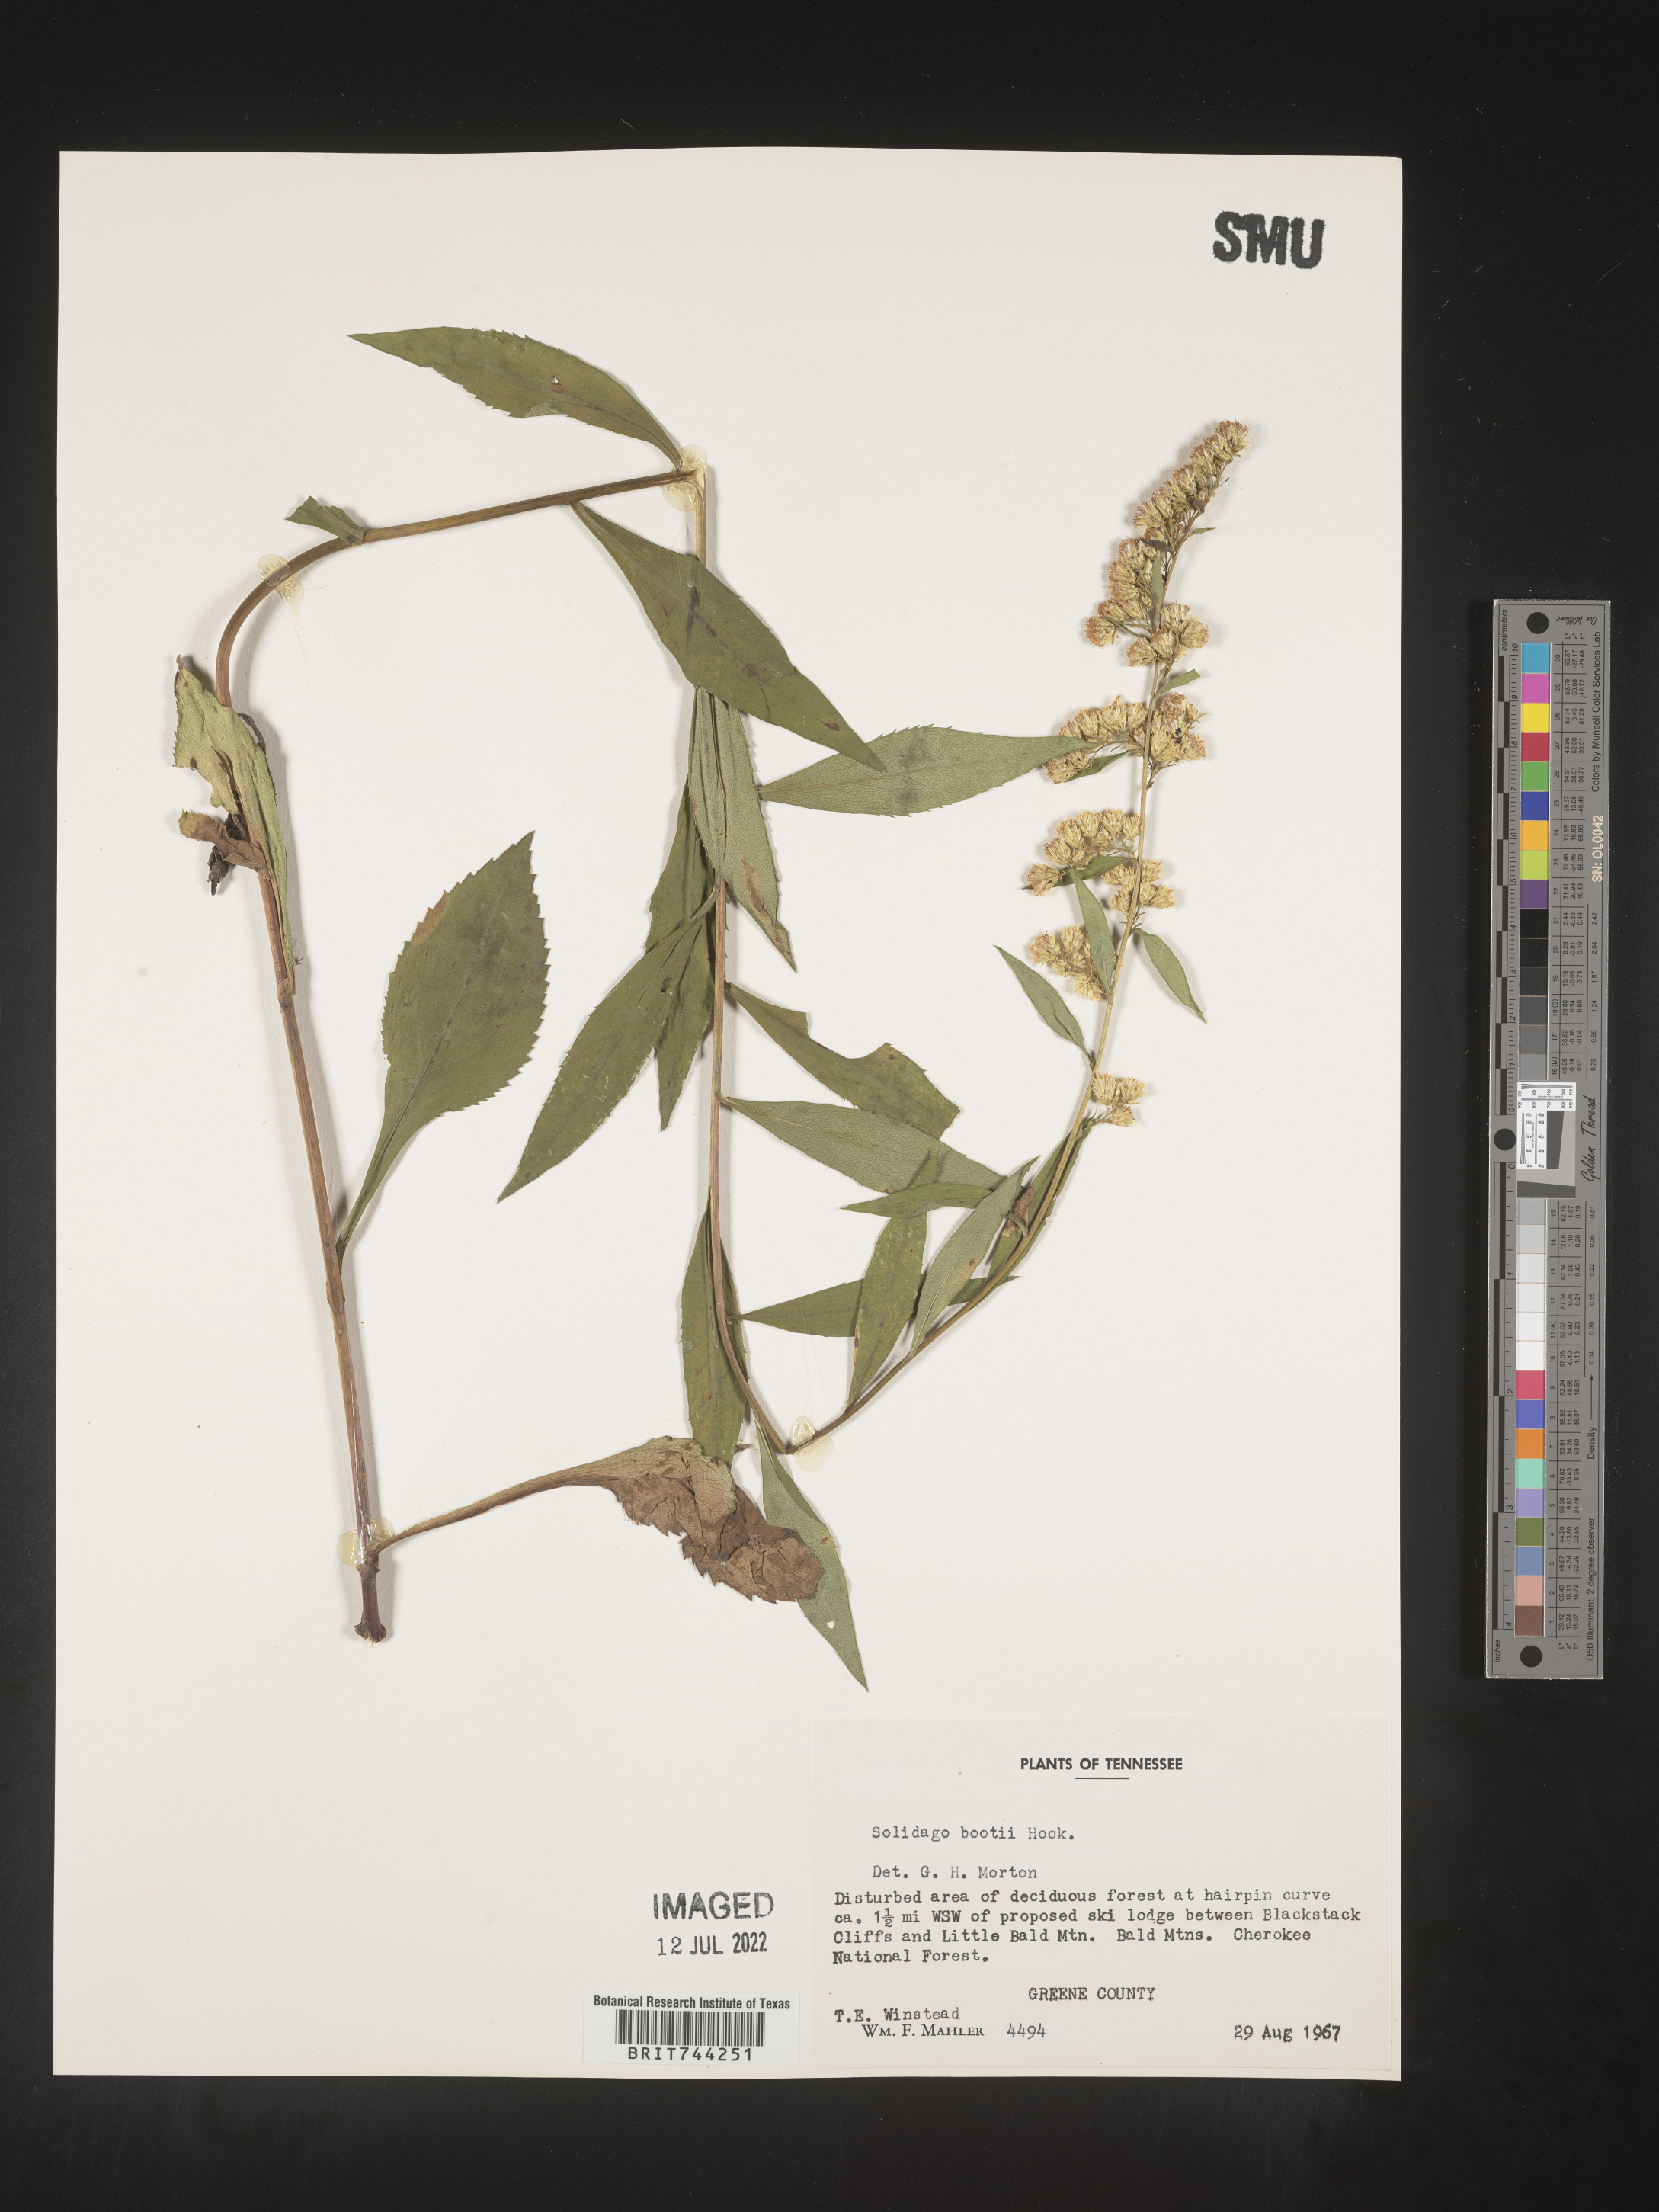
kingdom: Plantae
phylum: Tracheophyta
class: Magnoliopsida
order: Asterales
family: Asteraceae
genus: Solidago
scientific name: Solidago vaseyi
